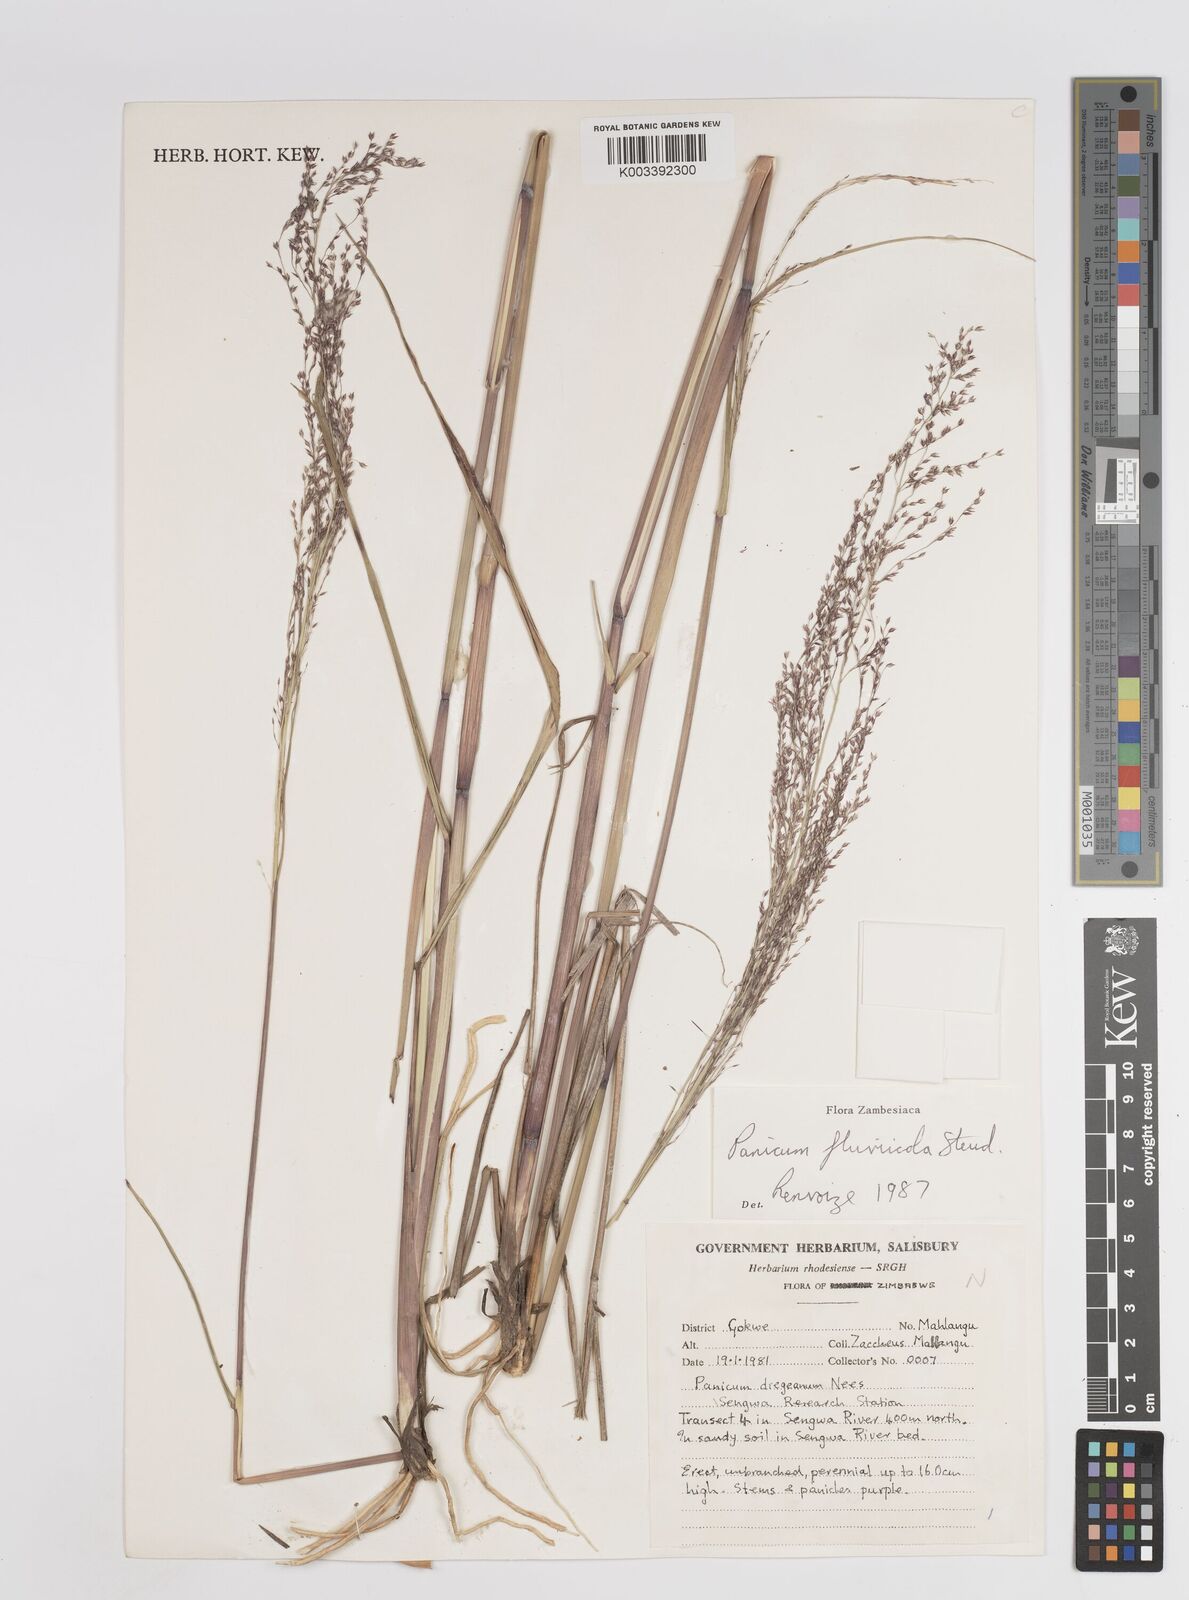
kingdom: Plantae
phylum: Tracheophyta
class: Liliopsida
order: Poales
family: Poaceae
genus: Panicum
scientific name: Panicum fluviicola
